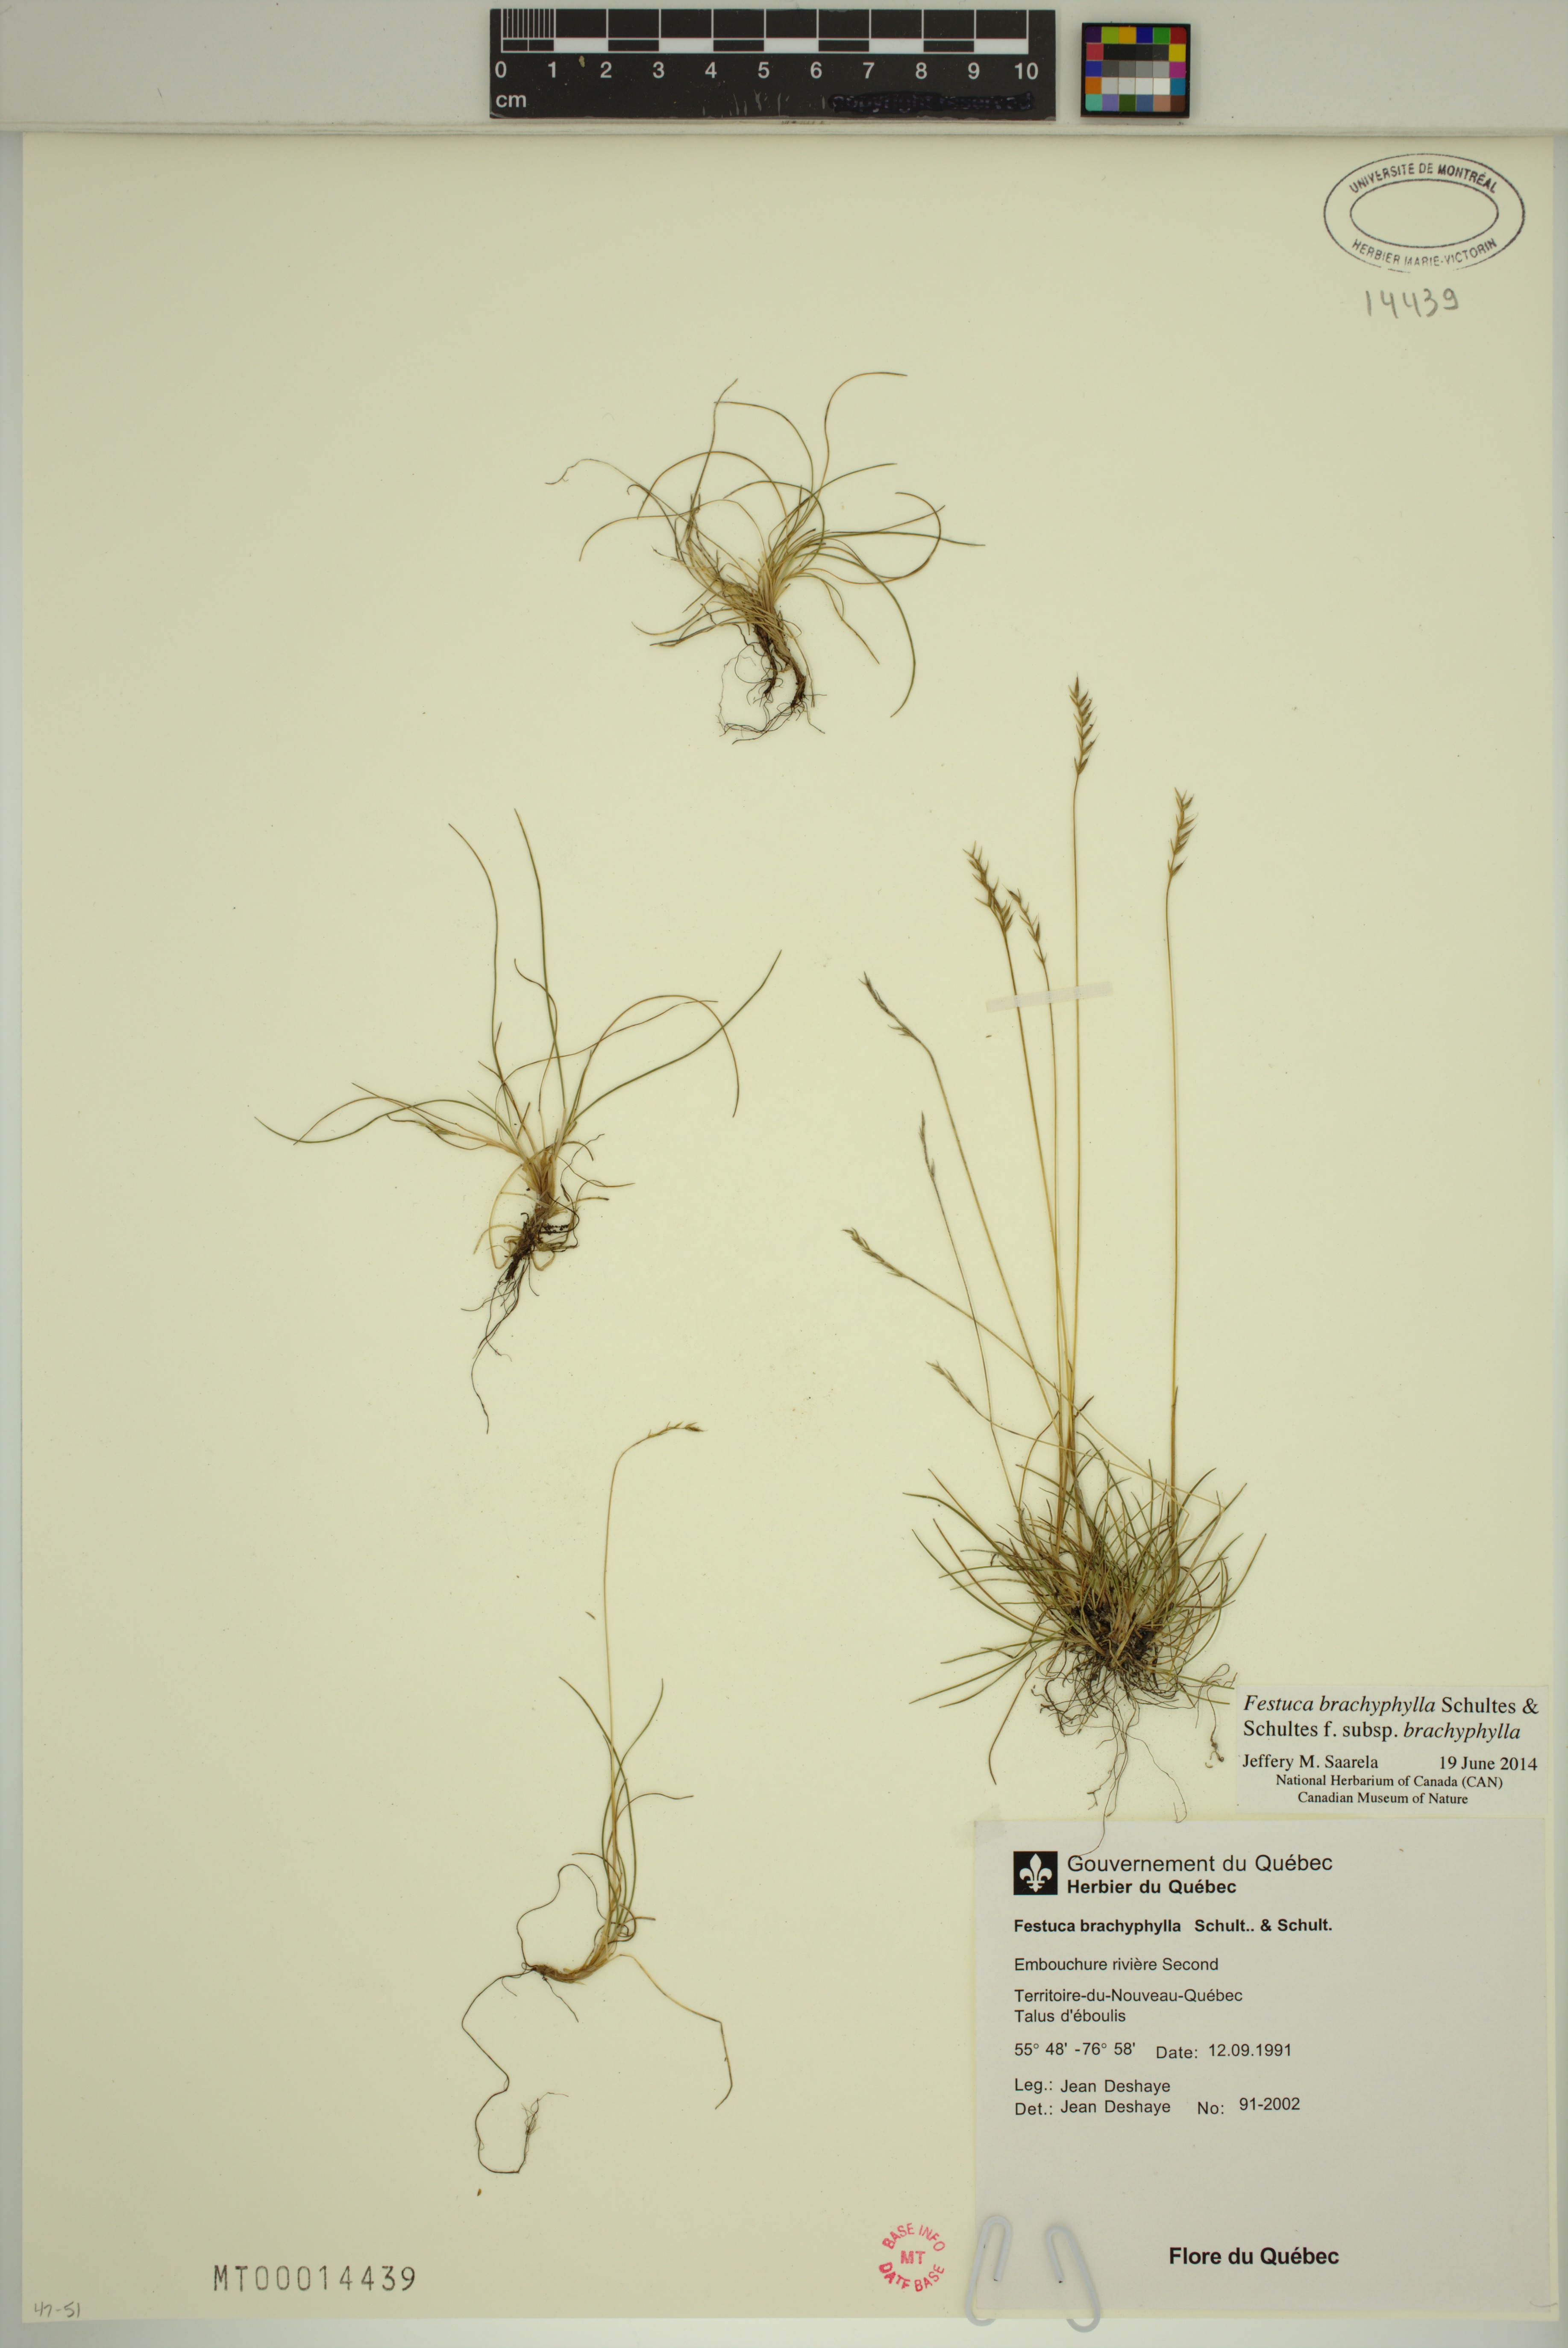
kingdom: Plantae
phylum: Tracheophyta
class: Liliopsida
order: Poales
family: Poaceae
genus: Festuca
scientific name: Festuca brachyphylla
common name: Alpine fescue
